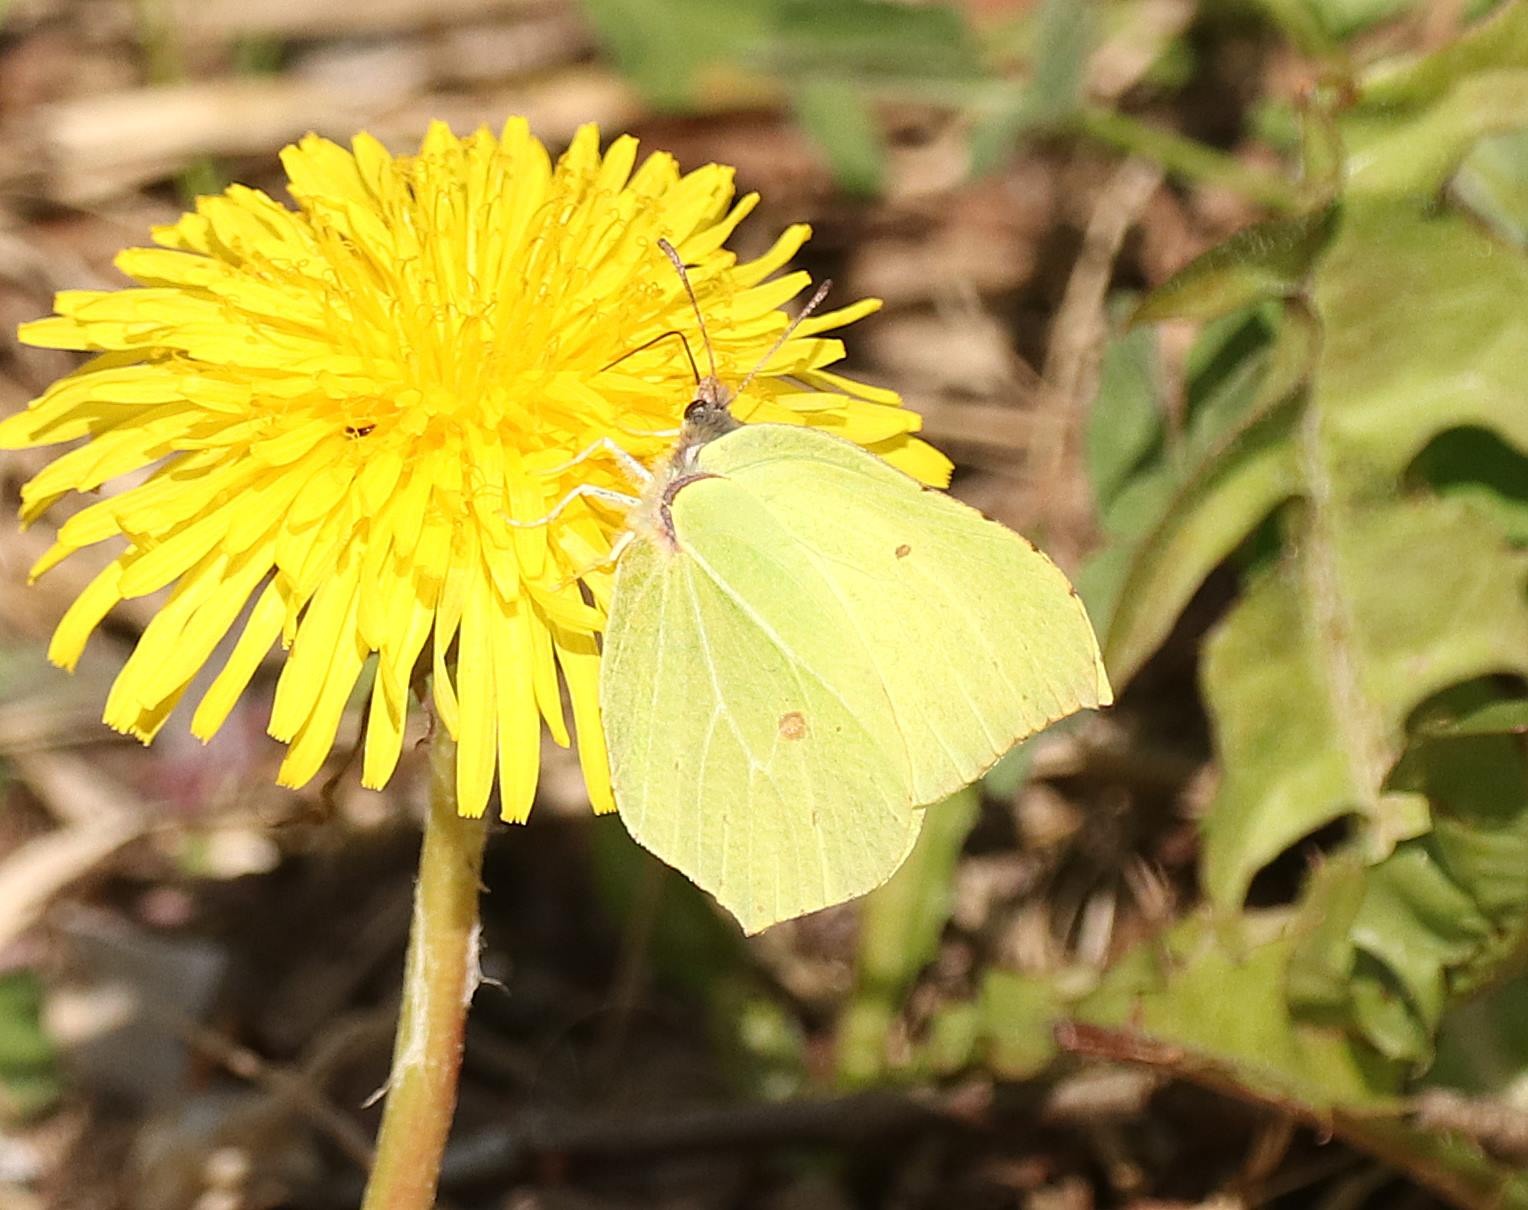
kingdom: Animalia
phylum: Arthropoda
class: Insecta
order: Lepidoptera
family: Pieridae
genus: Gonepteryx
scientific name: Gonepteryx rhamni
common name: Citronsommerfugl
